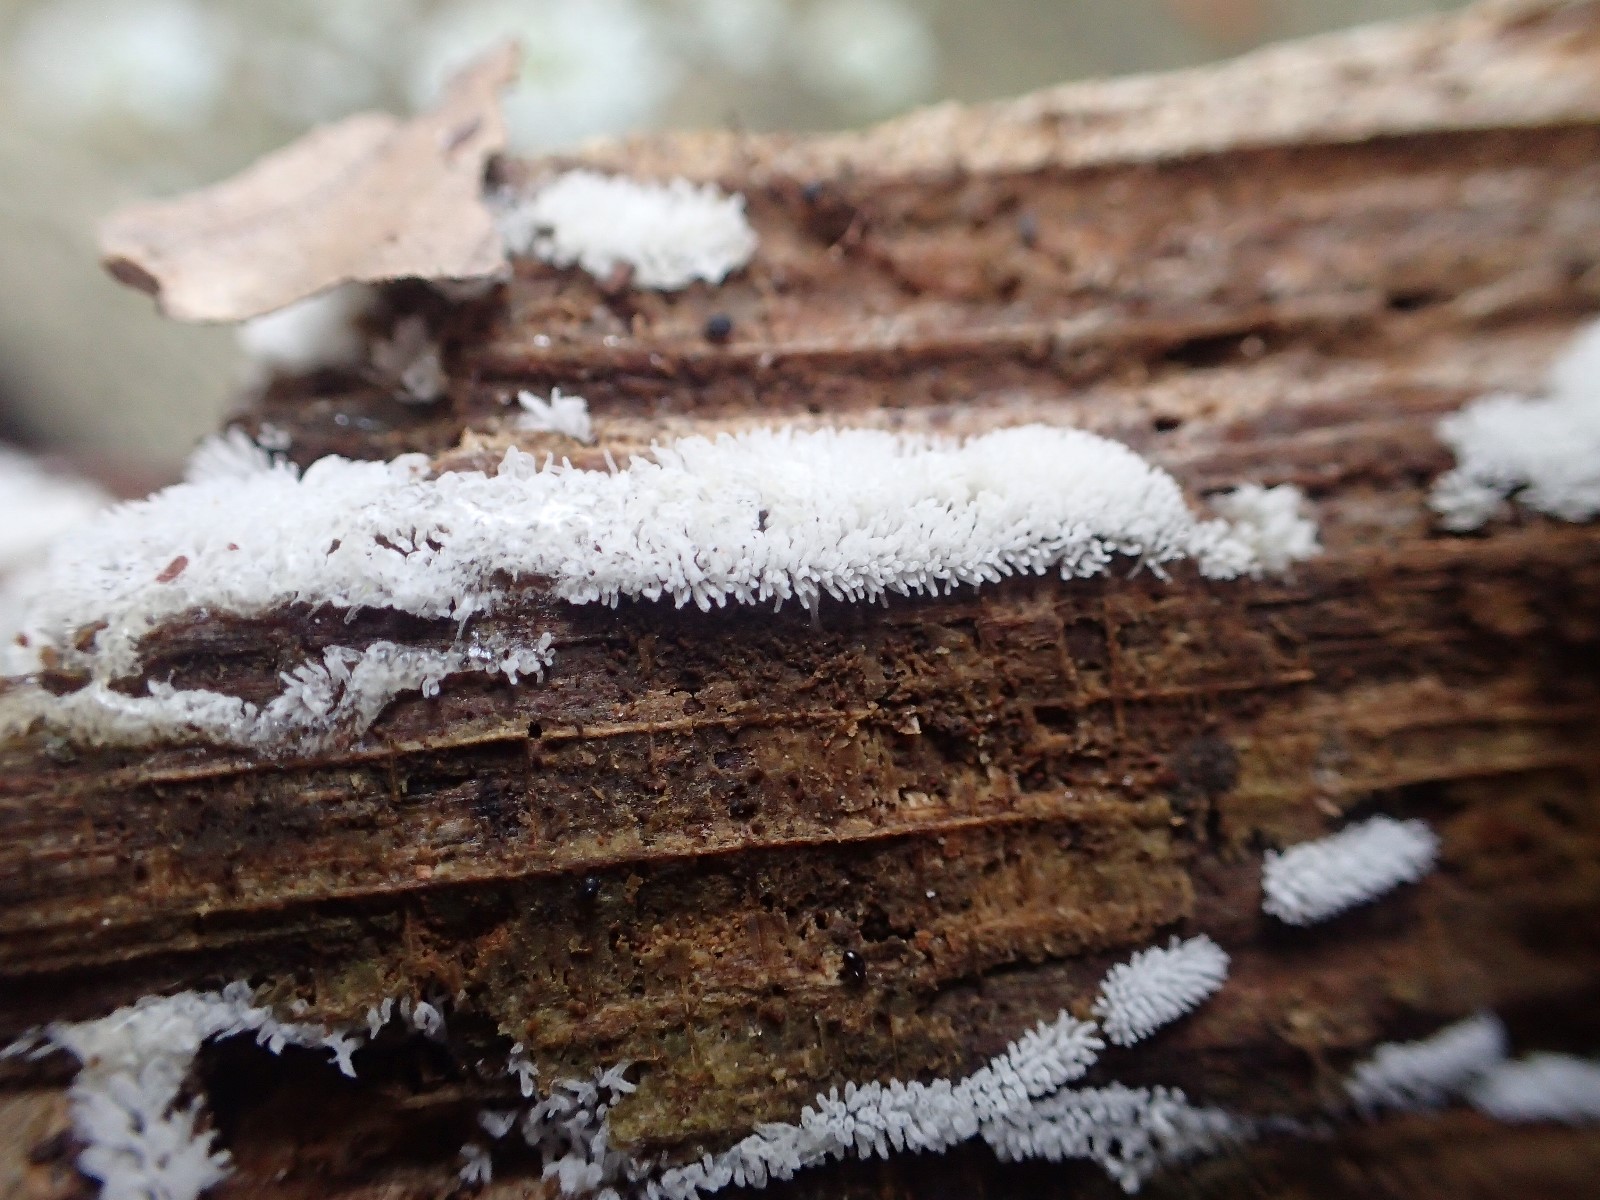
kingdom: Protozoa
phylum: Mycetozoa
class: Protosteliomycetes
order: Ceratiomyxales
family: Ceratiomyxaceae
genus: Ceratiomyxa
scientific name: Ceratiomyxa fruticulosa
